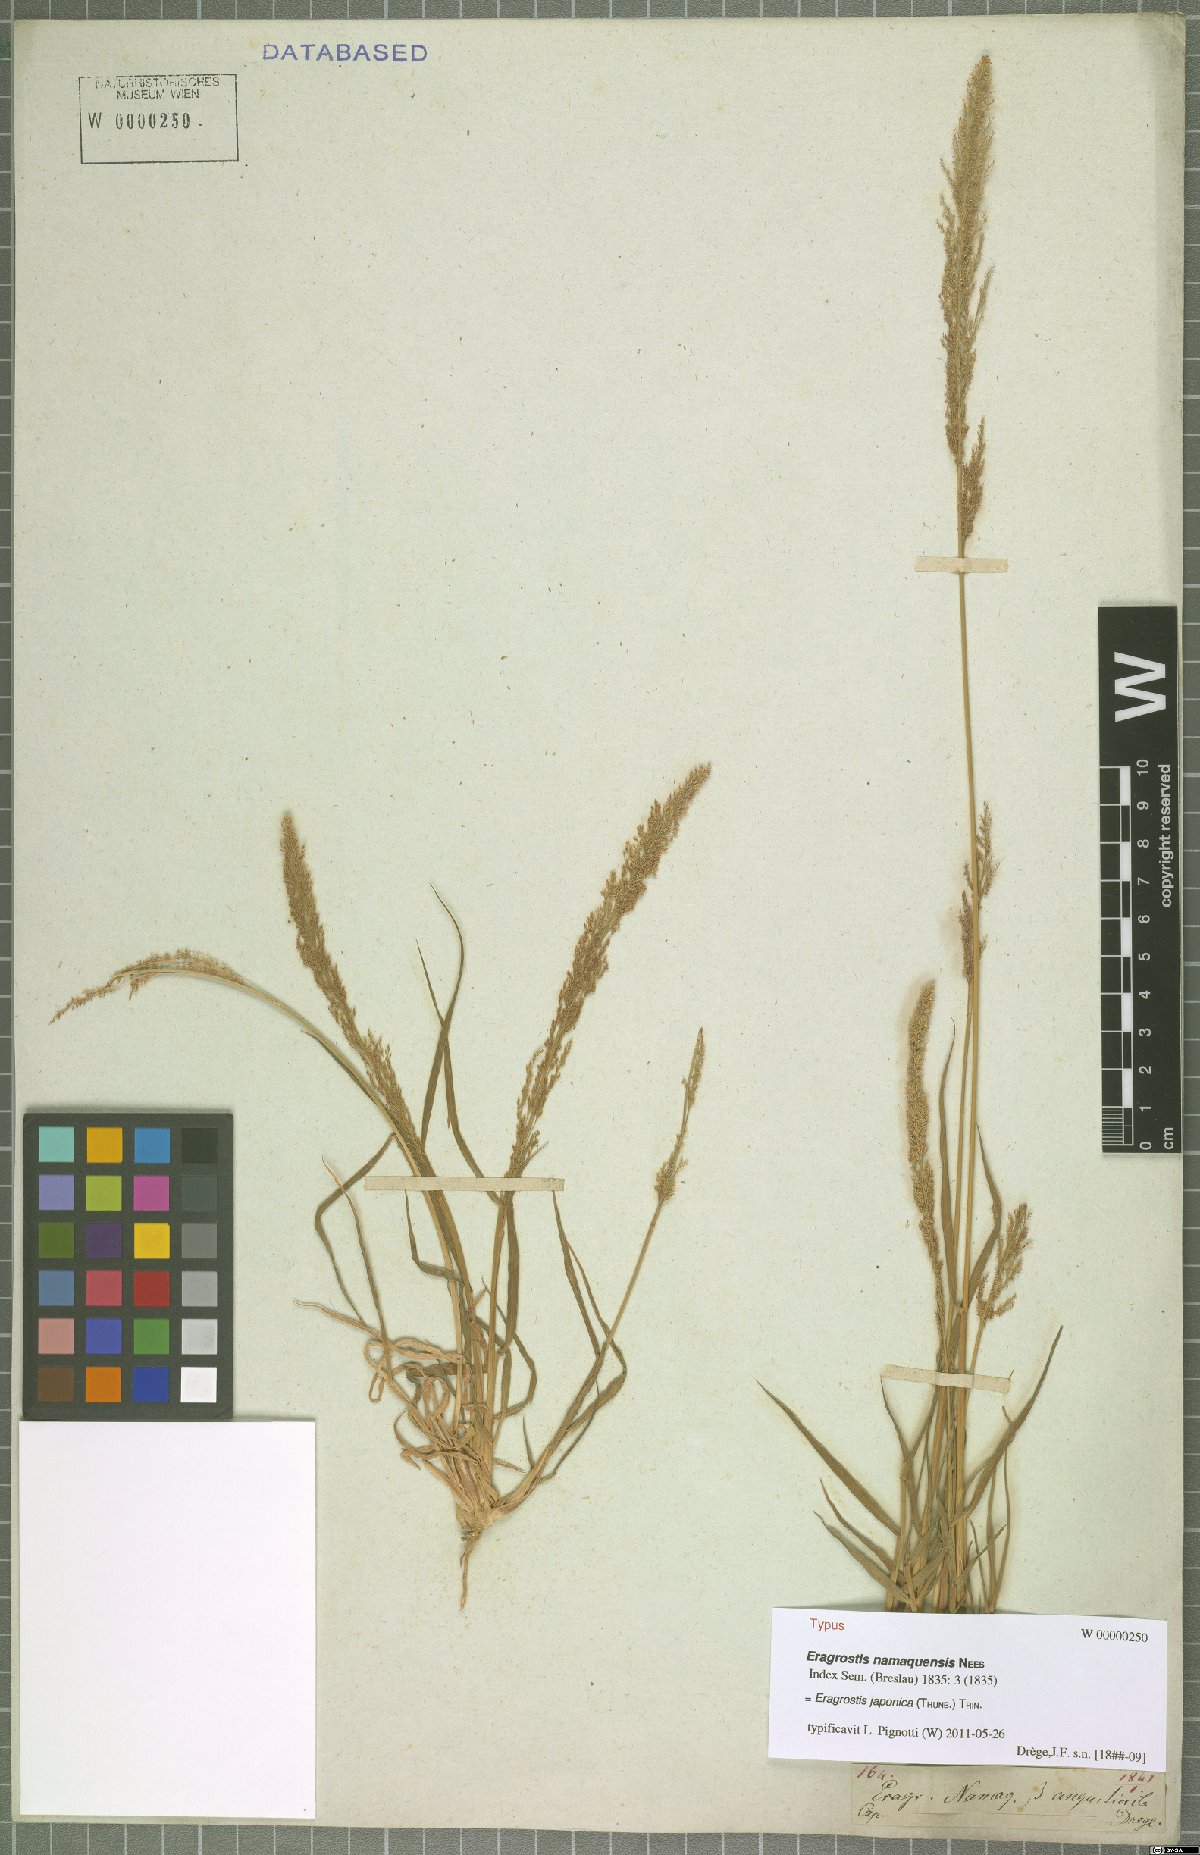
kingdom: Plantae
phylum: Tracheophyta
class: Liliopsida
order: Poales
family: Poaceae
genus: Eragrostis
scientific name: Eragrostis japonica
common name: Pond lovegrass
